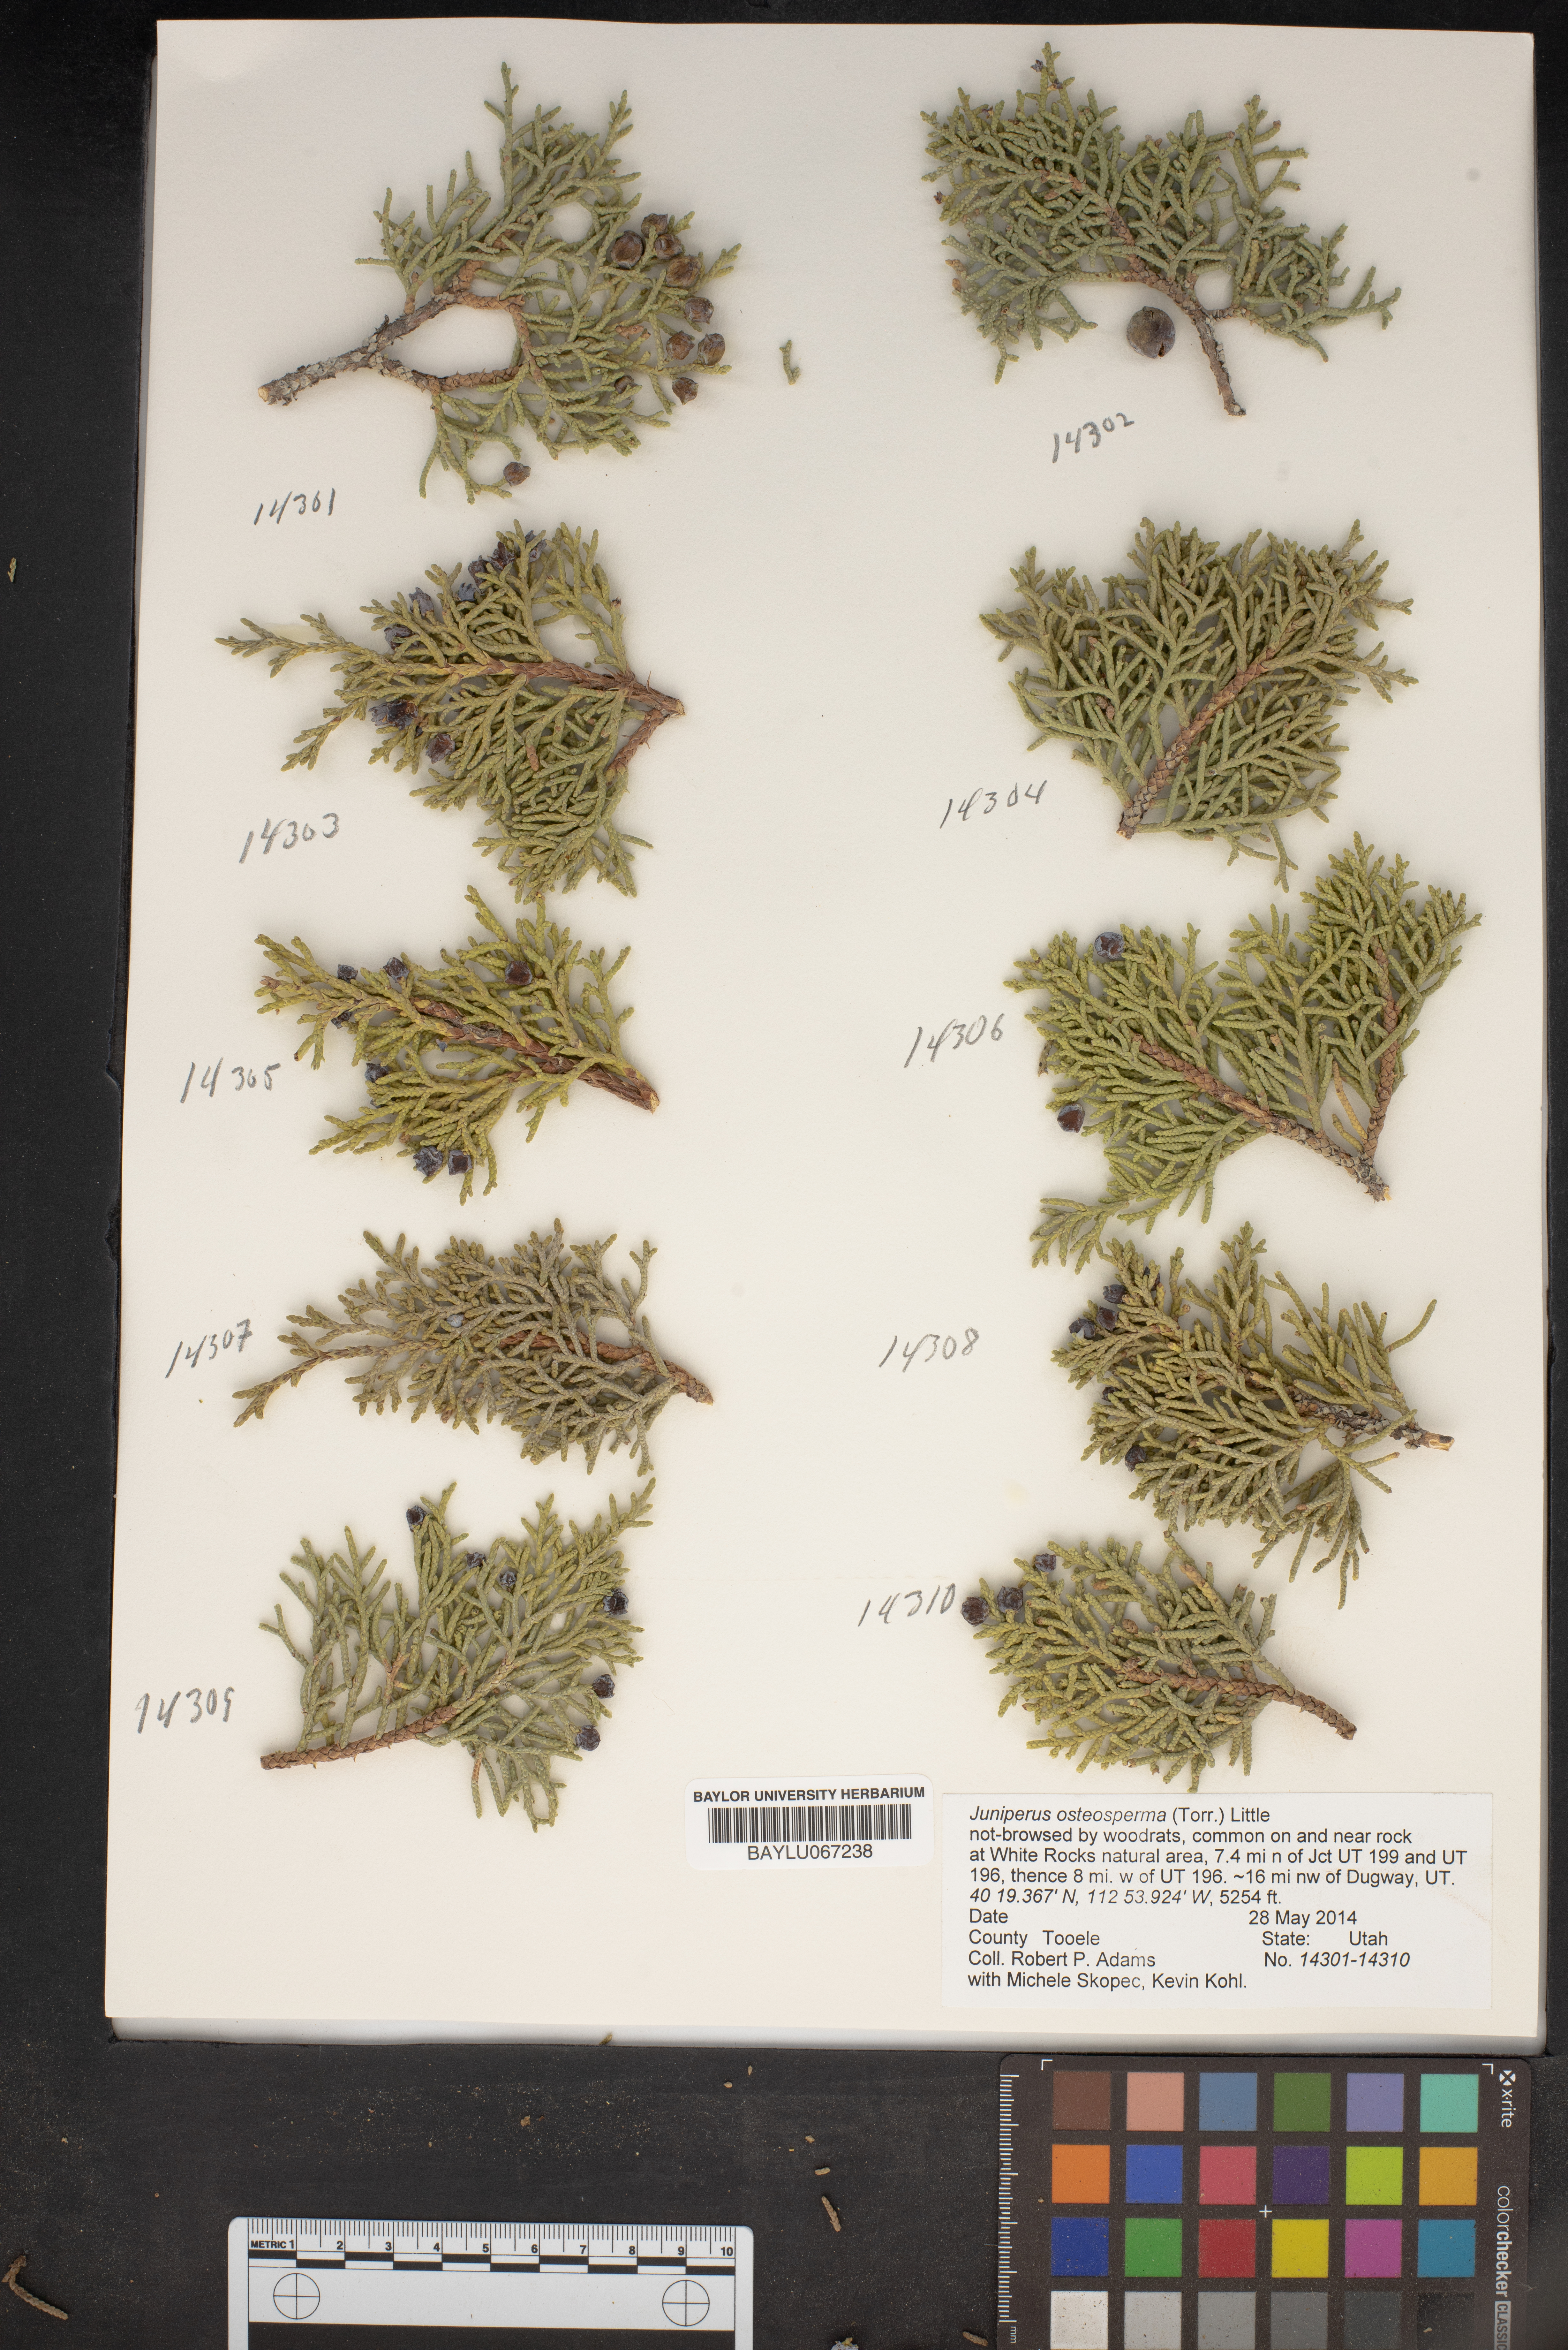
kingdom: Plantae
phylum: Tracheophyta
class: Pinopsida
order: Pinales
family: Cupressaceae
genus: Juniperus
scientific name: Juniperus osteosperma
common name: Utah juniper
